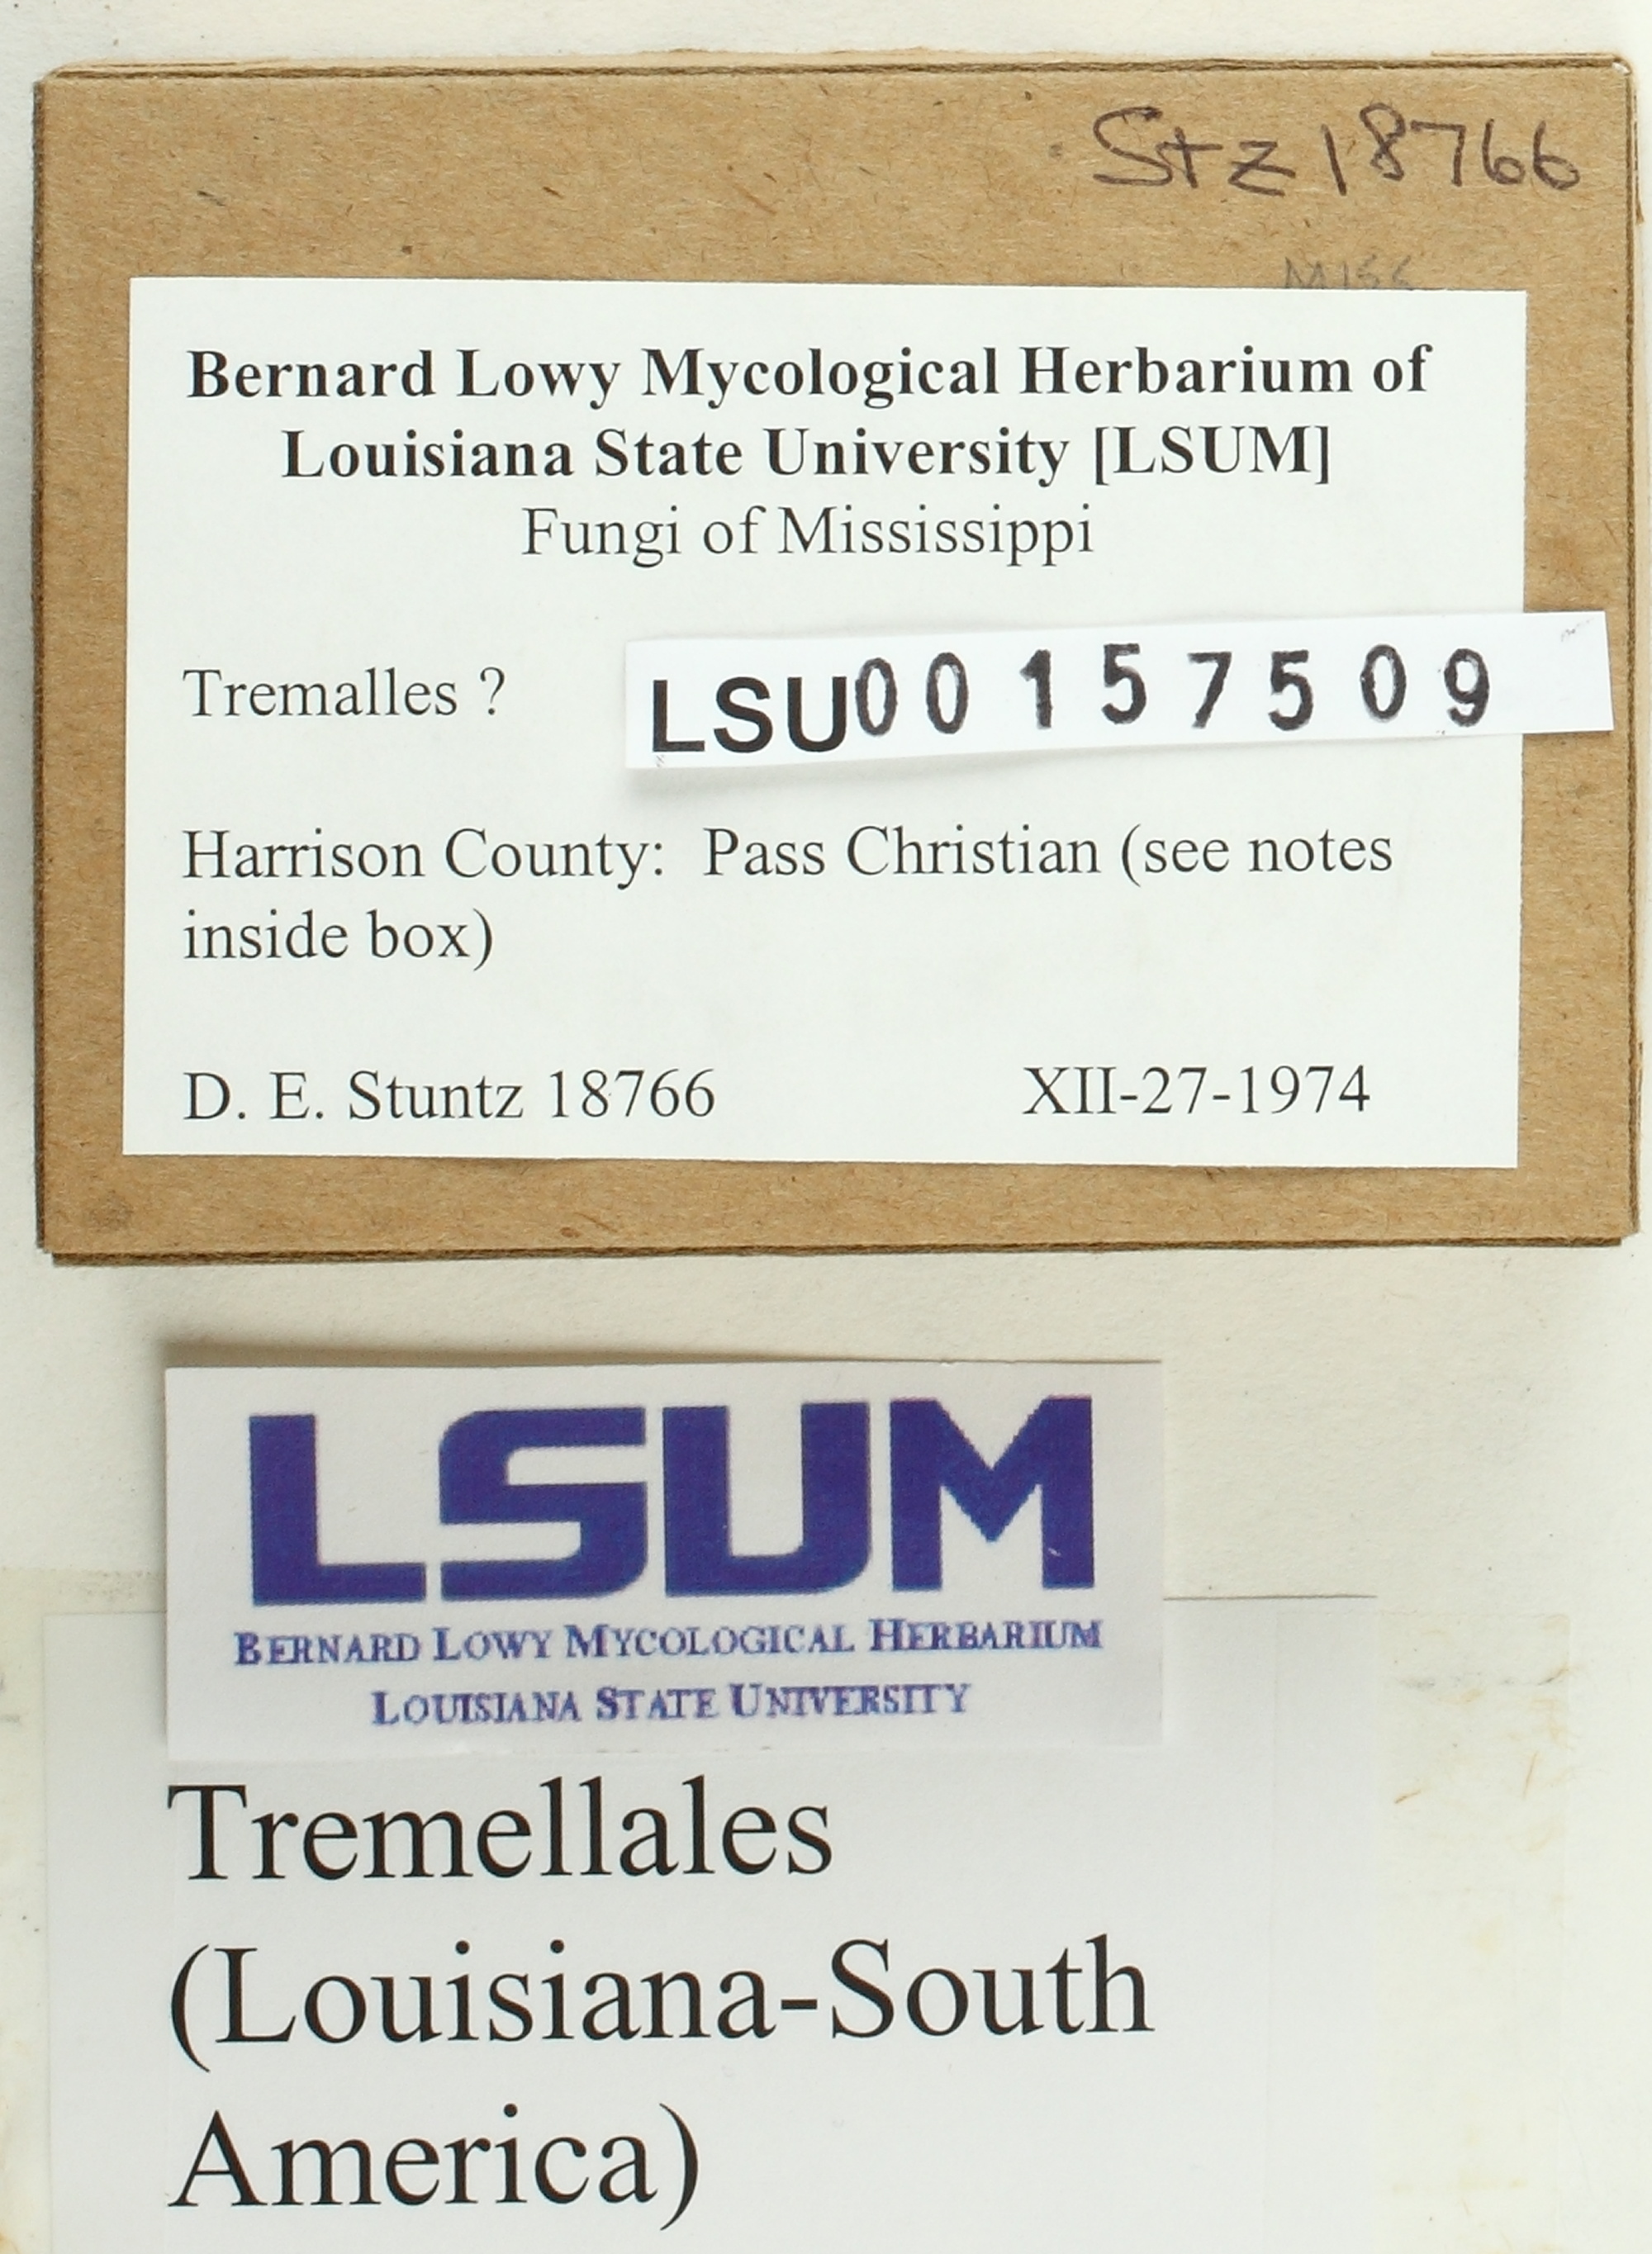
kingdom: Fungi
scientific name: Fungi
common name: Fungi
